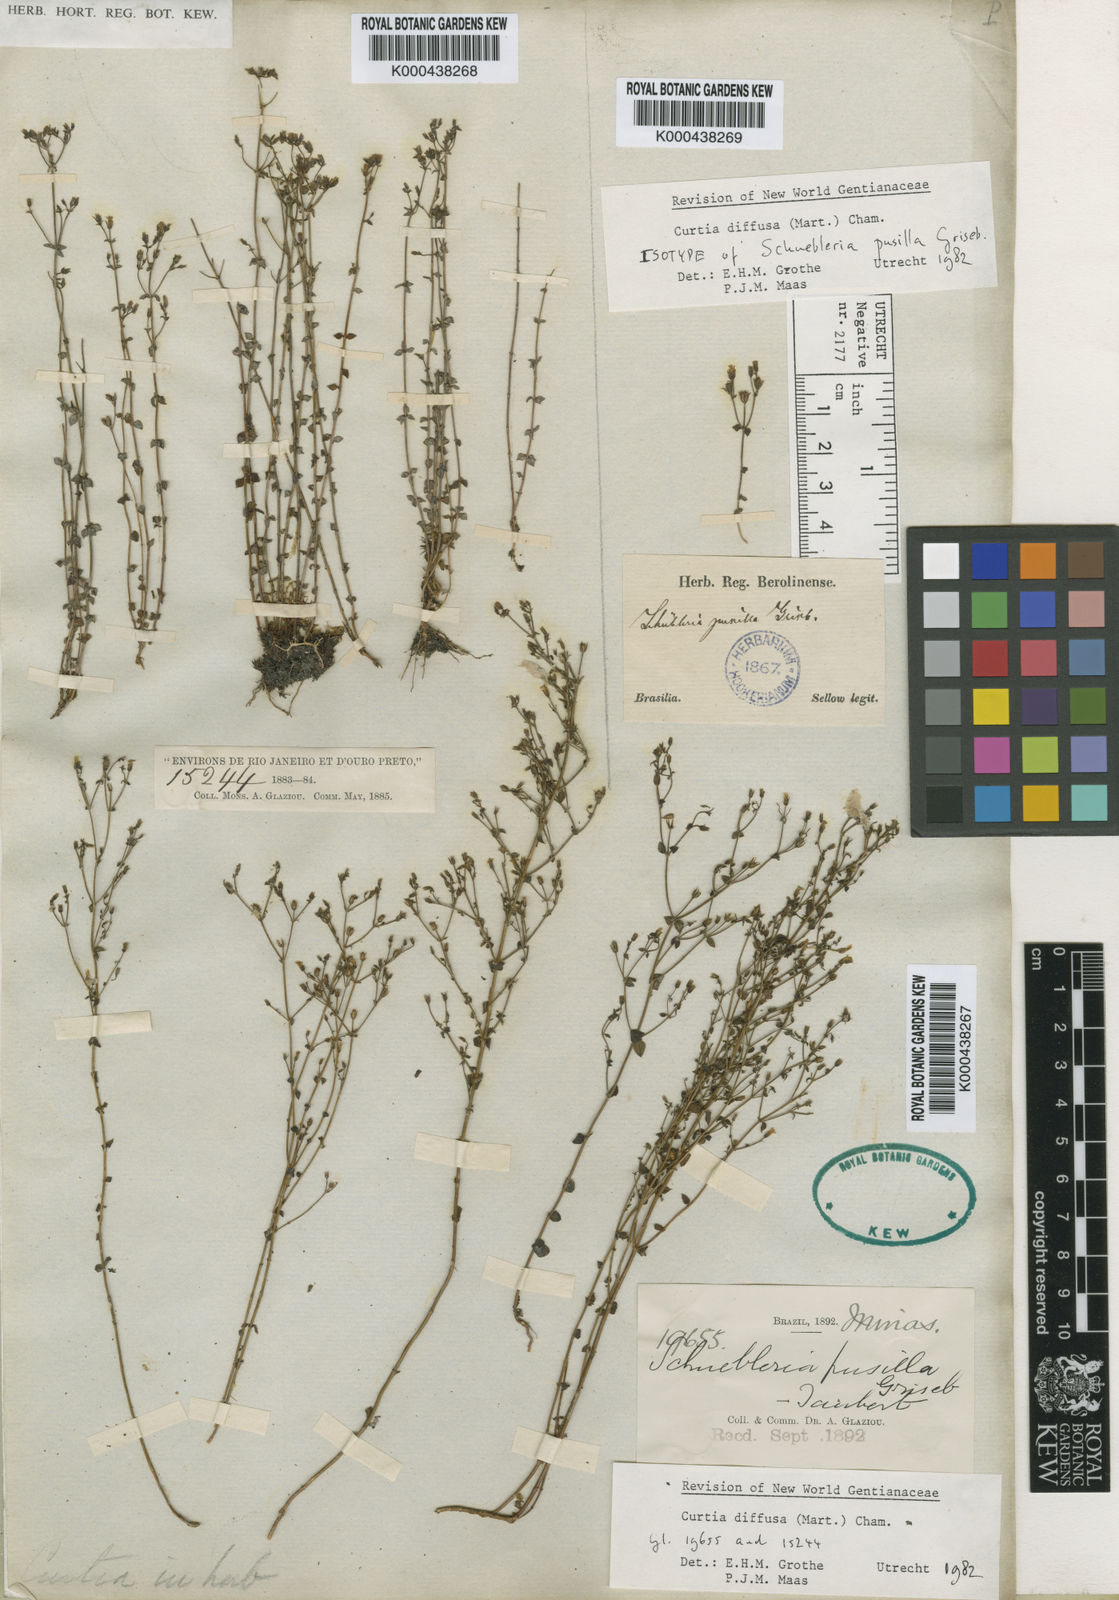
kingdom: Plantae
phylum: Tracheophyta
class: Magnoliopsida
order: Gentianales
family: Gentianaceae
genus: Curtia
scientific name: Curtia diffusa
